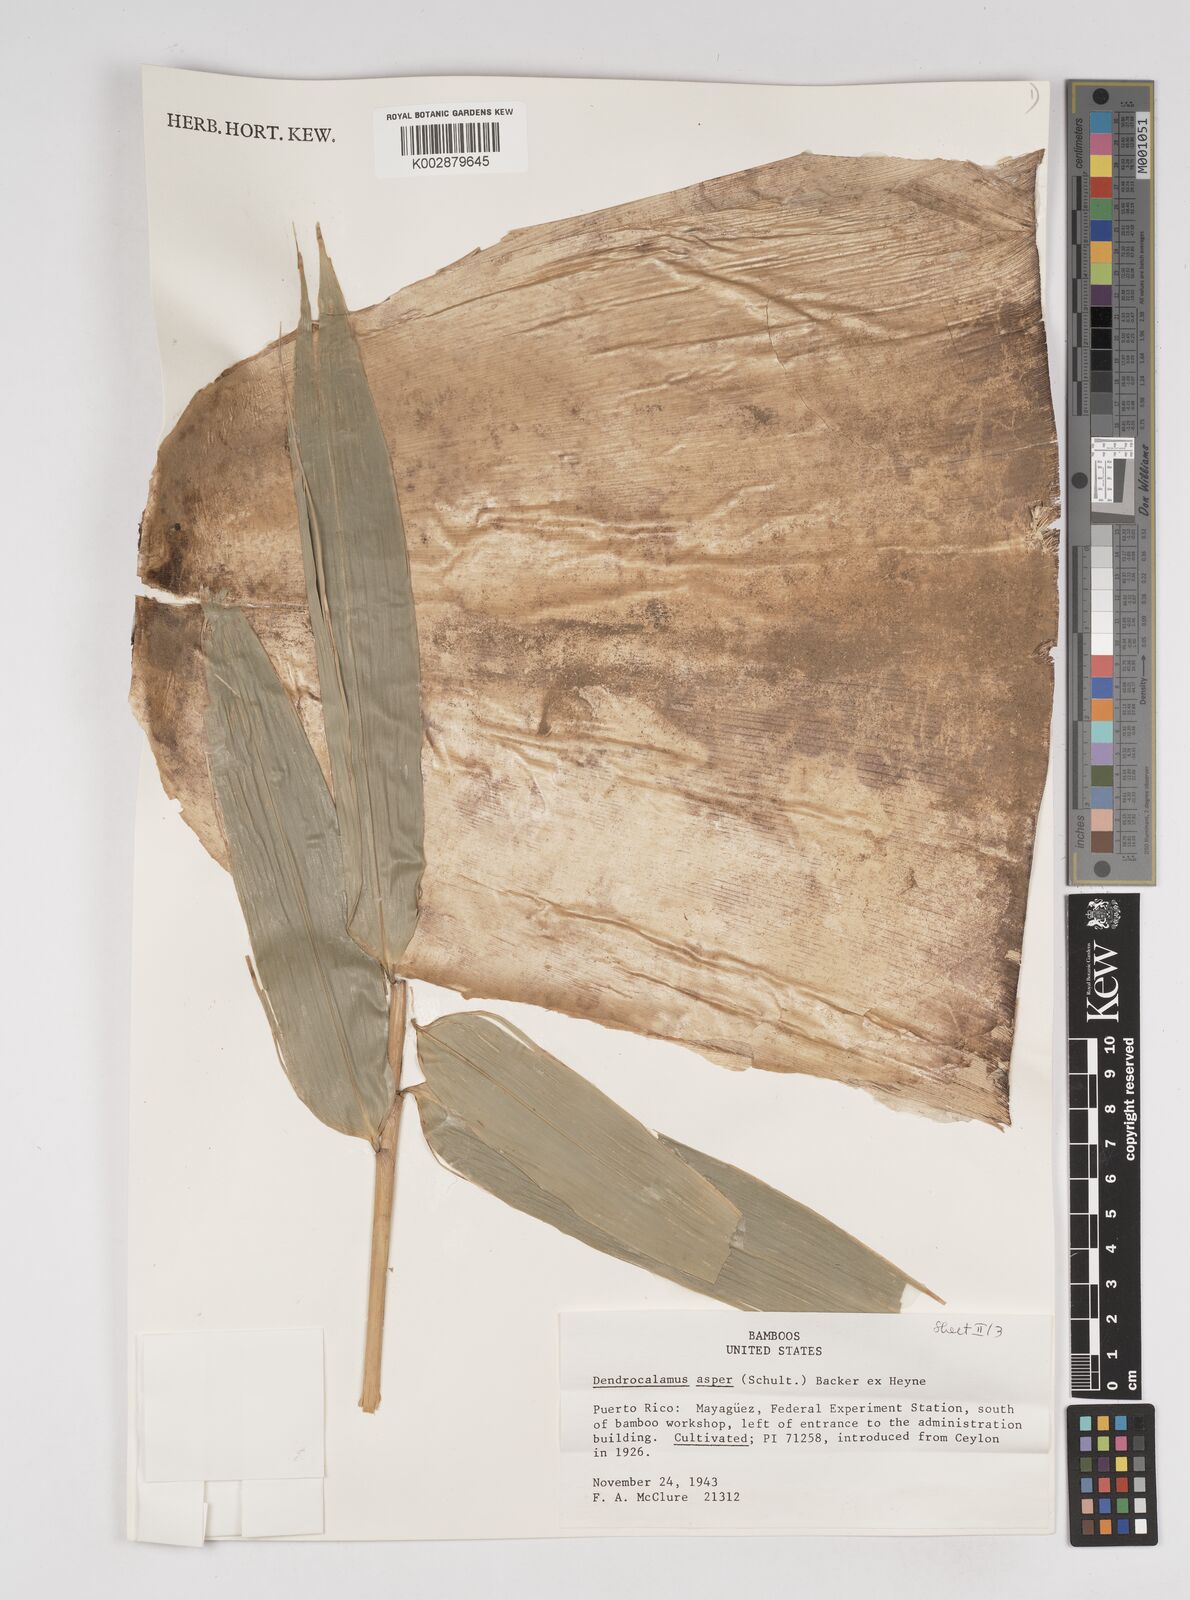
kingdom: Plantae
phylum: Tracheophyta
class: Liliopsida
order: Poales
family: Poaceae
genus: Dendrocalamus
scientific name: Dendrocalamus asper
